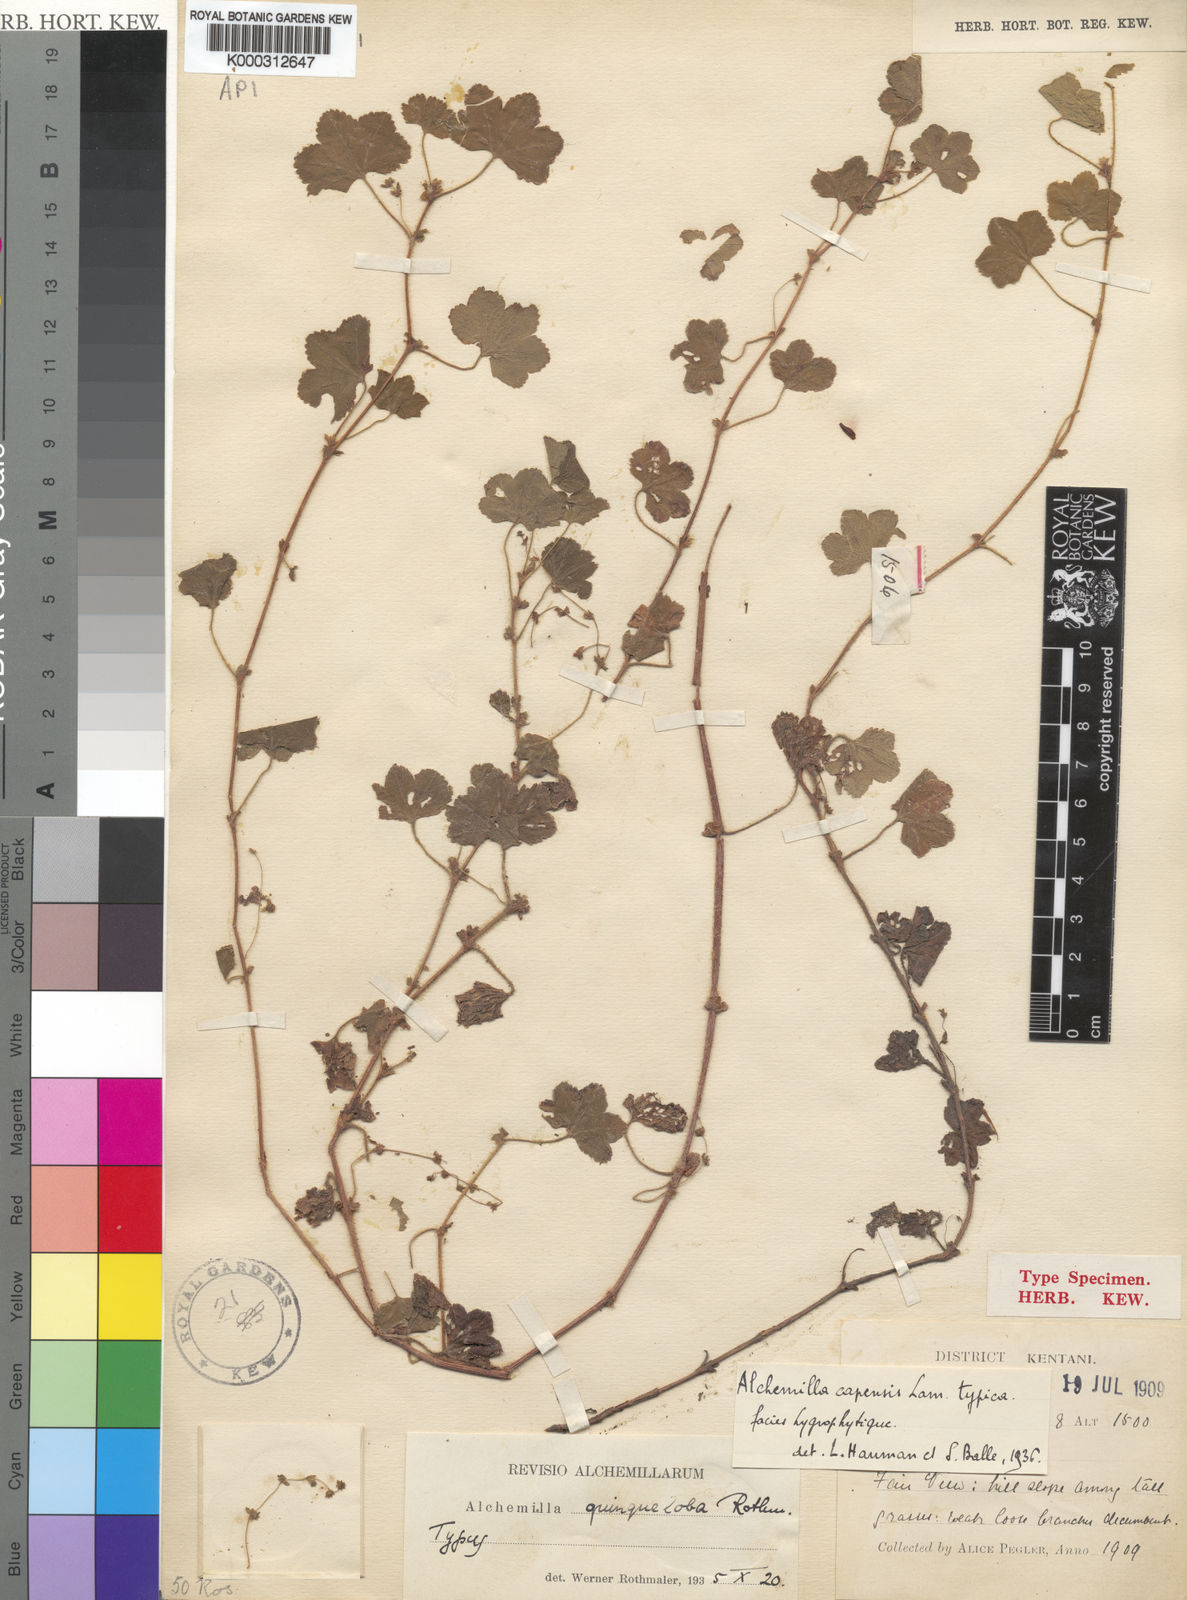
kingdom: Plantae
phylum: Tracheophyta
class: Magnoliopsida
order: Rosales
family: Rosaceae
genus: Alchemilla
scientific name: Alchemilla quinqueloba
